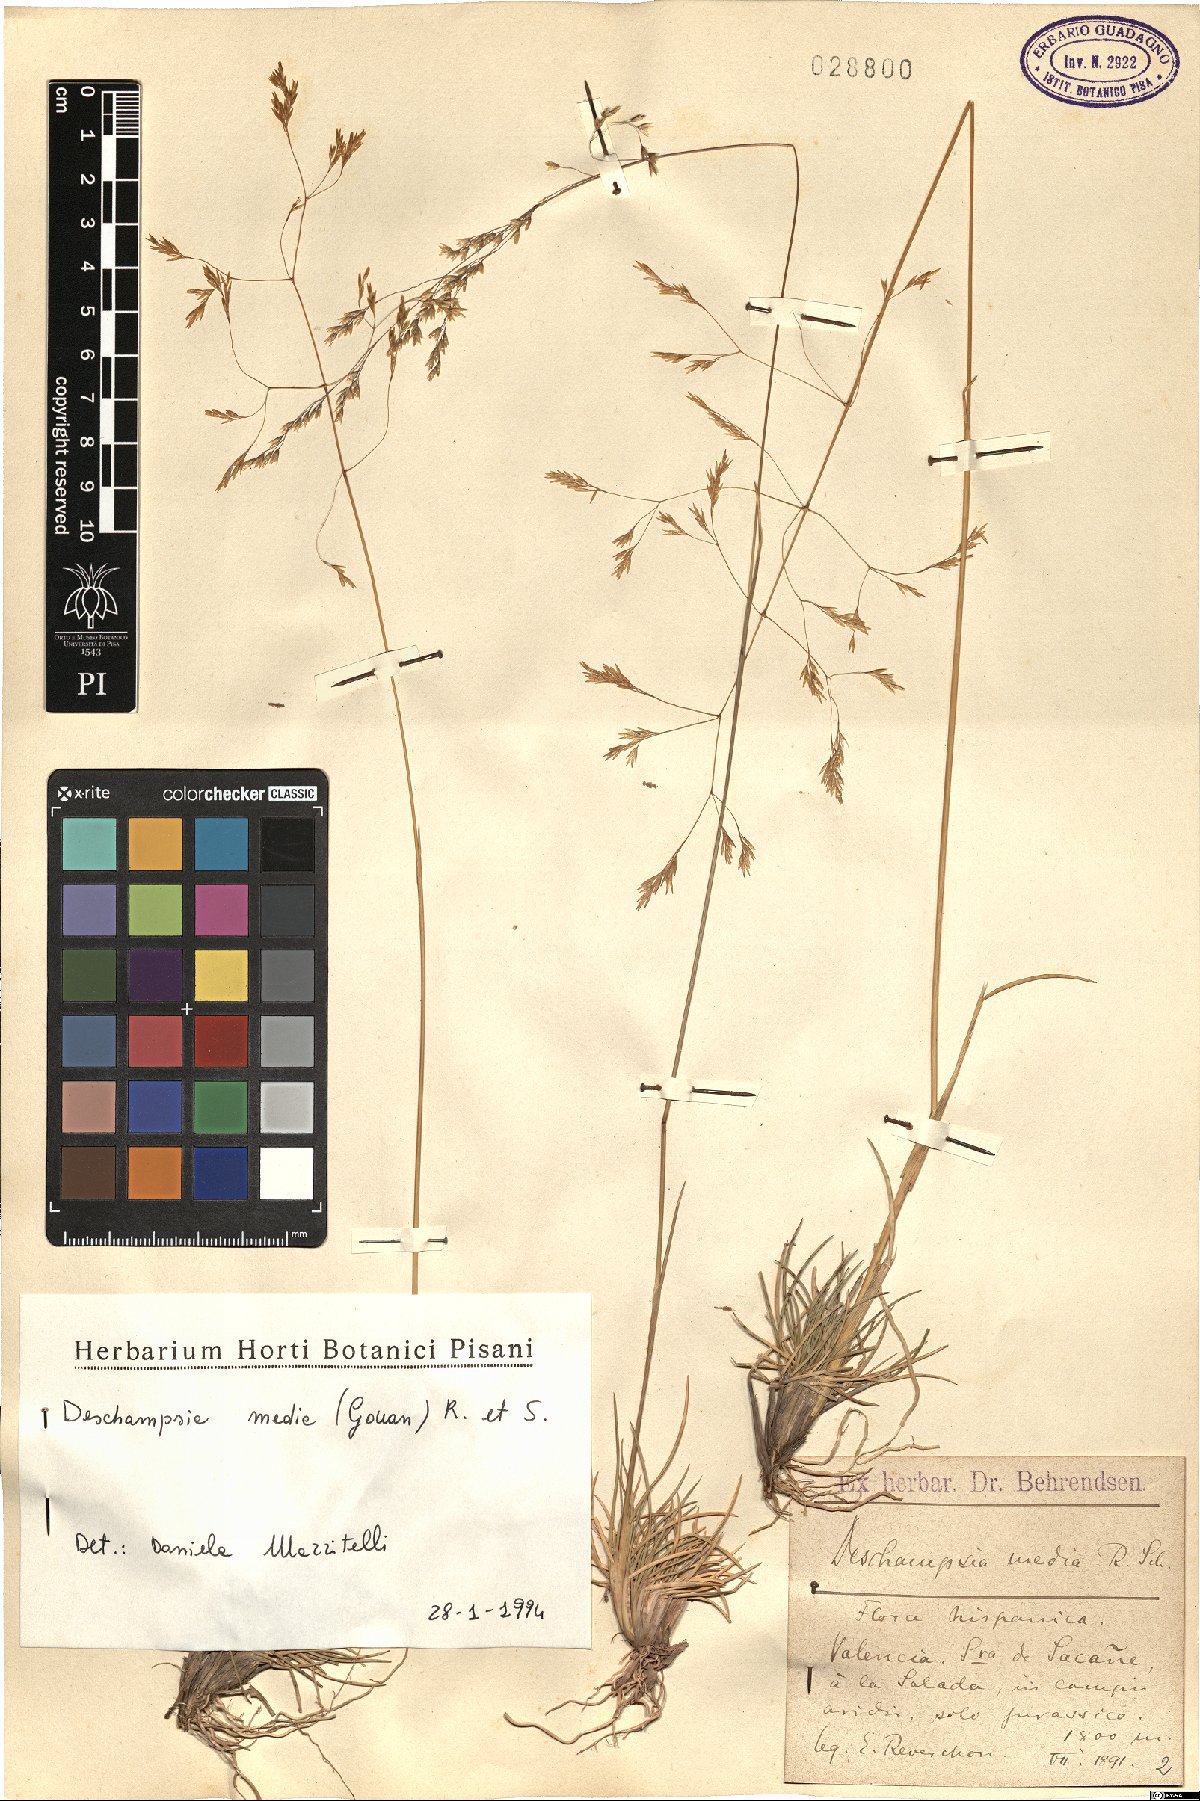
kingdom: Plantae
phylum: Tracheophyta
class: Liliopsida
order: Poales
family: Poaceae
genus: Deschampsia
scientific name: Deschampsia media
